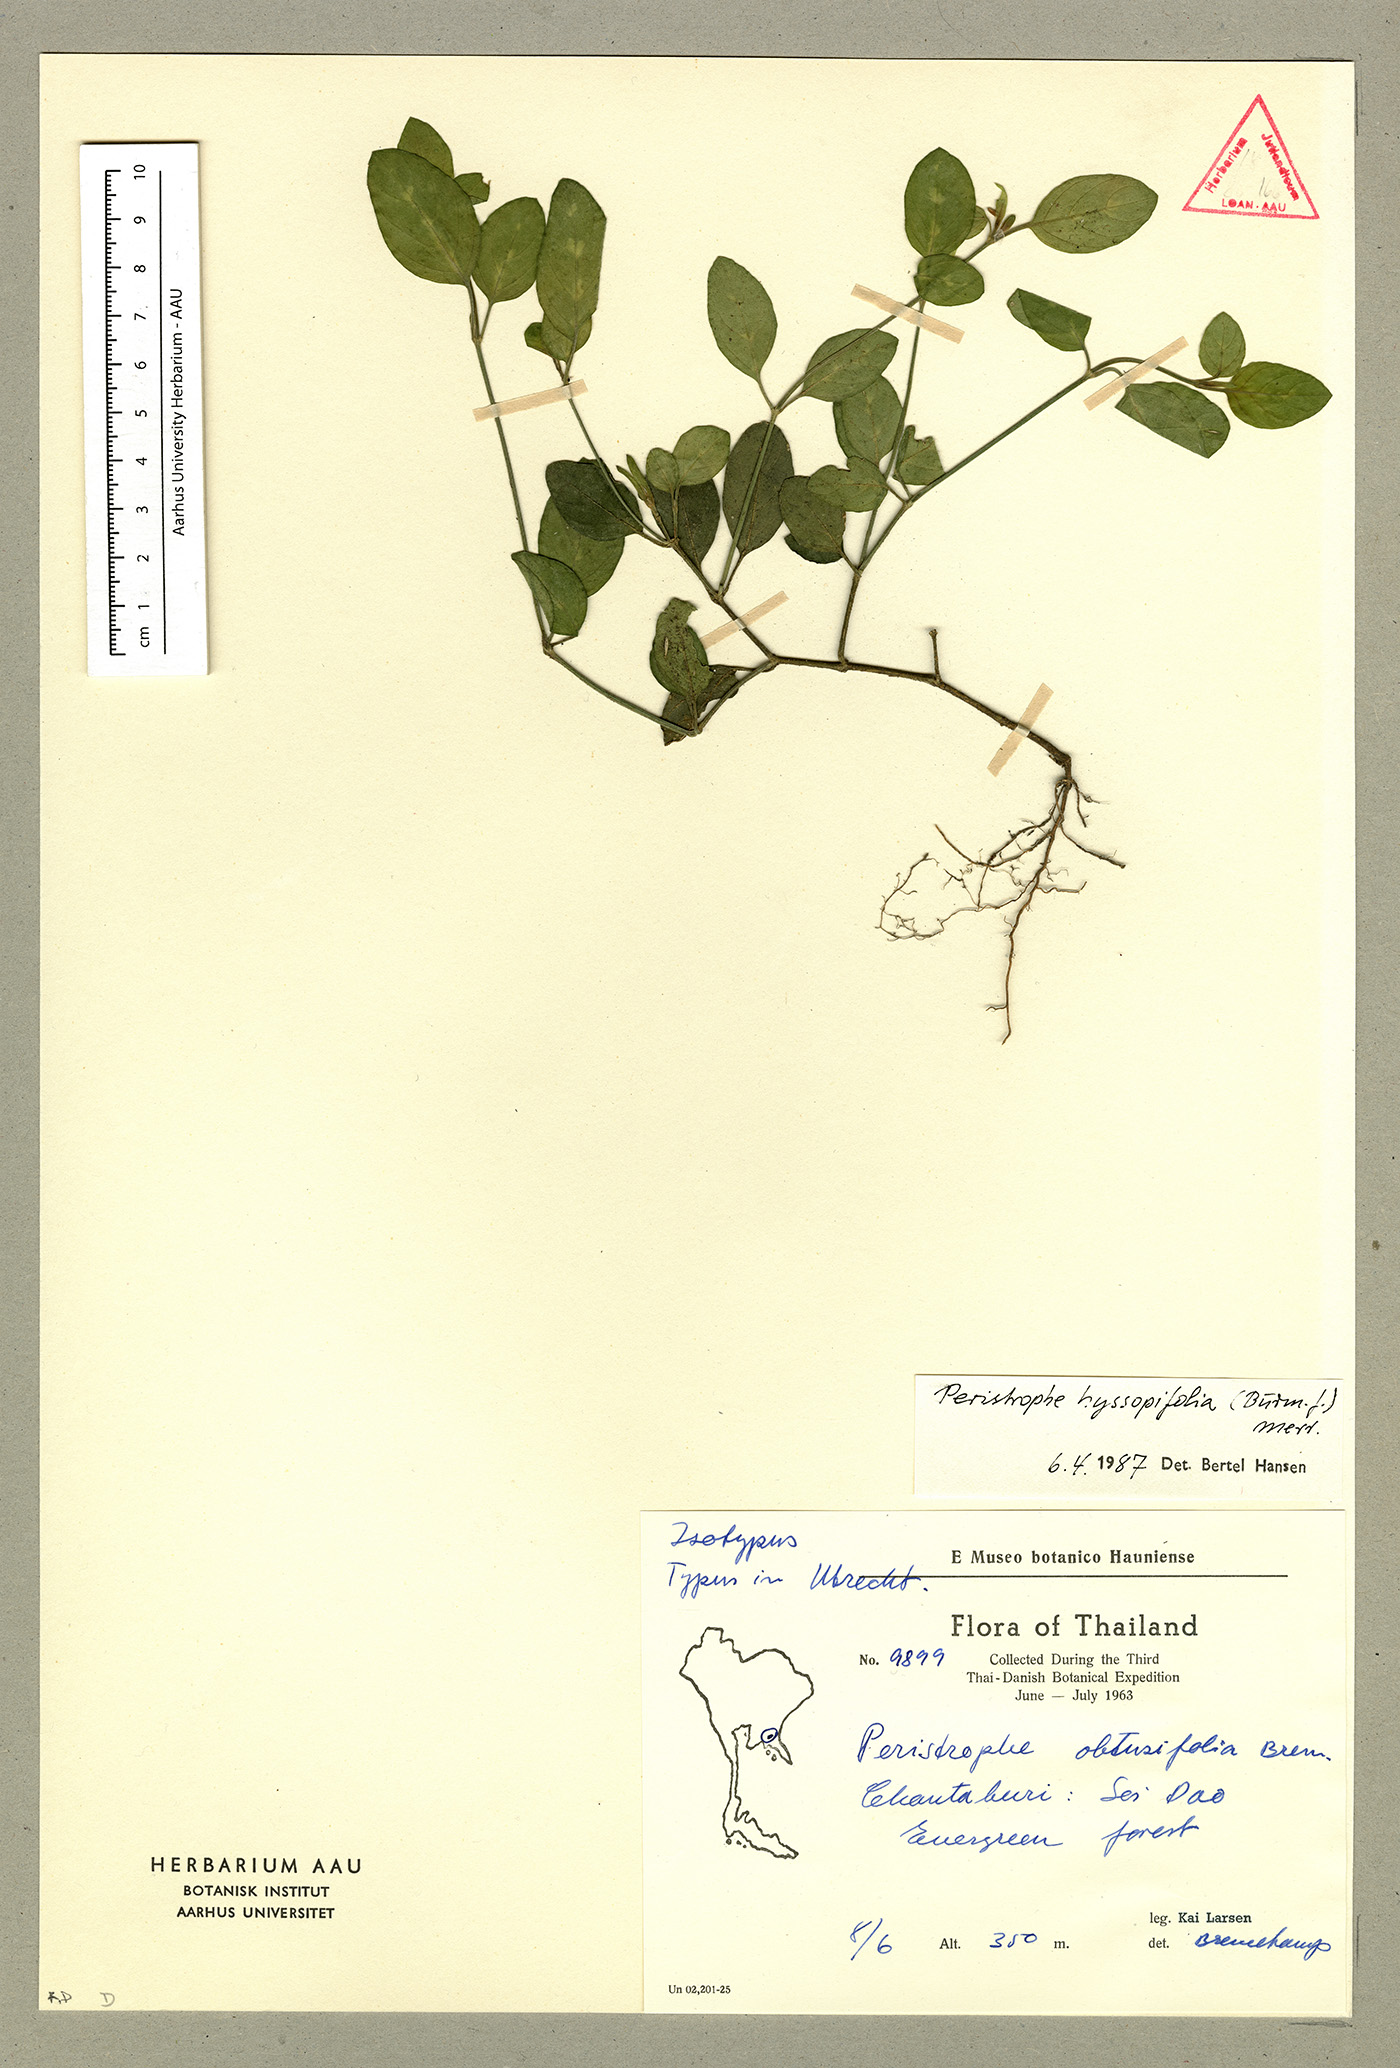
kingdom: Plantae
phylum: Tracheophyta
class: Magnoliopsida
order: Lamiales
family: Acanthaceae
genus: Dicliptera
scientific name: Dicliptera undulata
